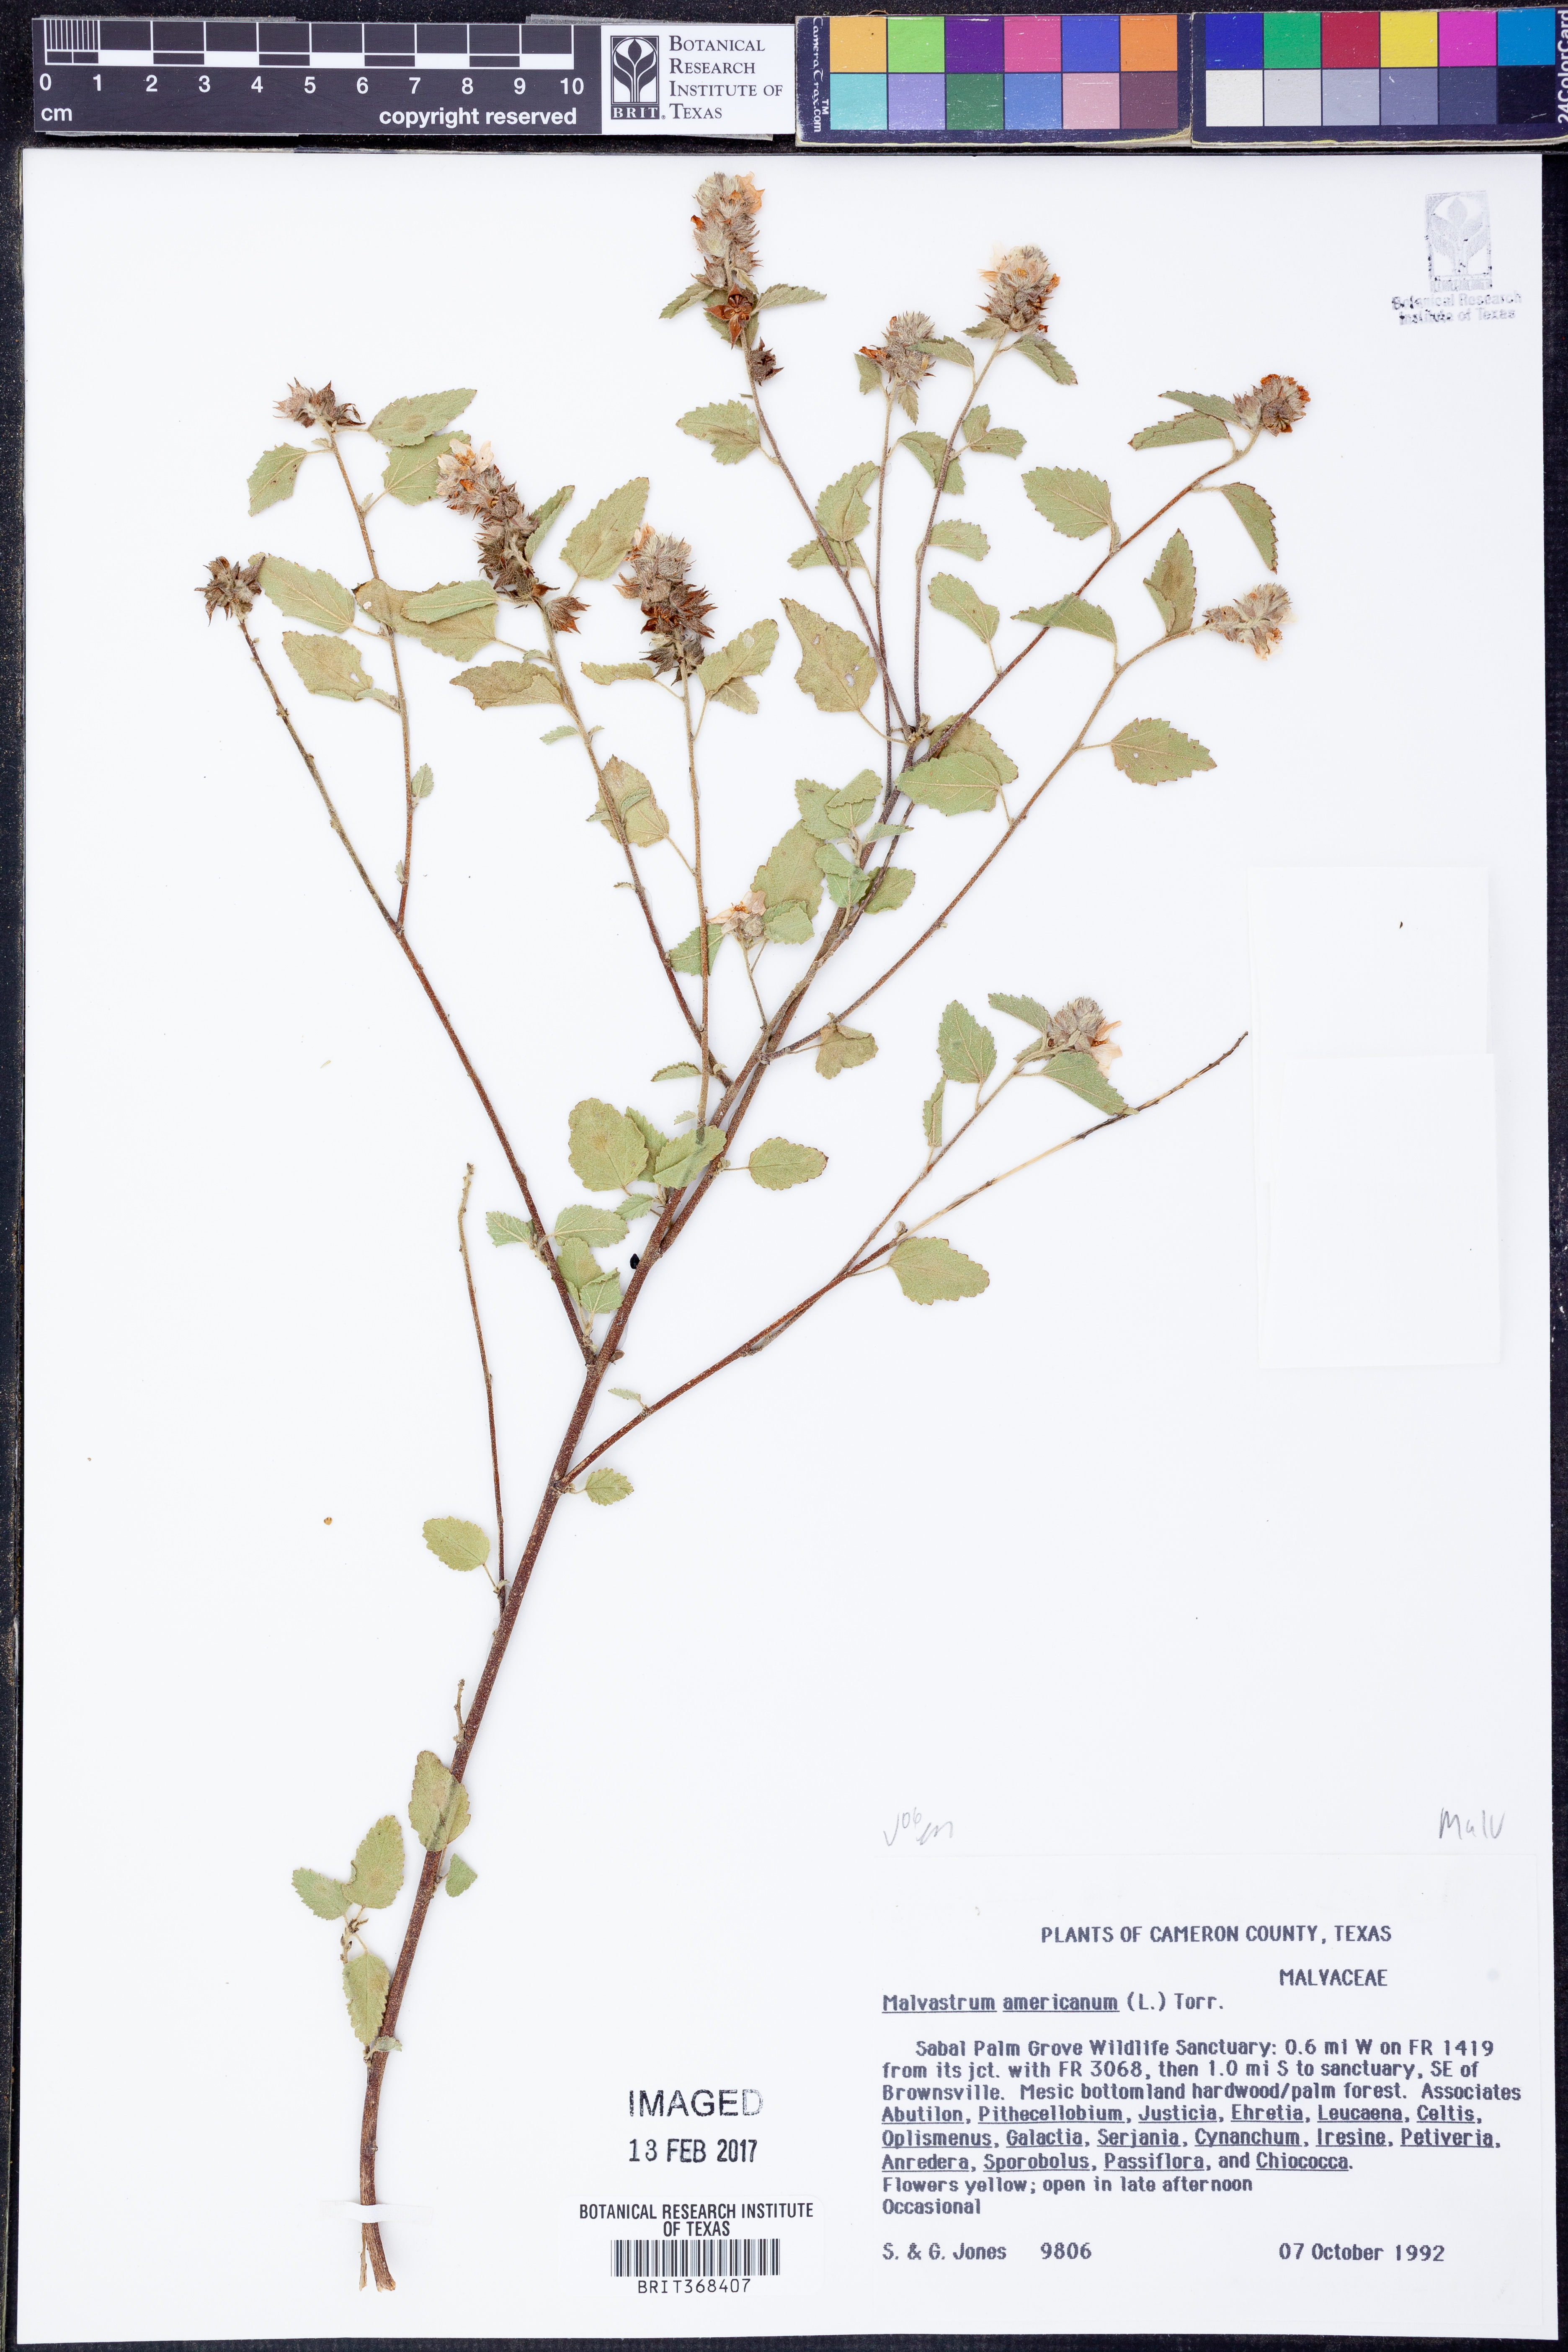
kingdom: Plantae
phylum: Tracheophyta
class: Magnoliopsida
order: Malvales
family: Malvaceae
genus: Malvastrum
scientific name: Malvastrum americanum
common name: Spiked malvastrum
